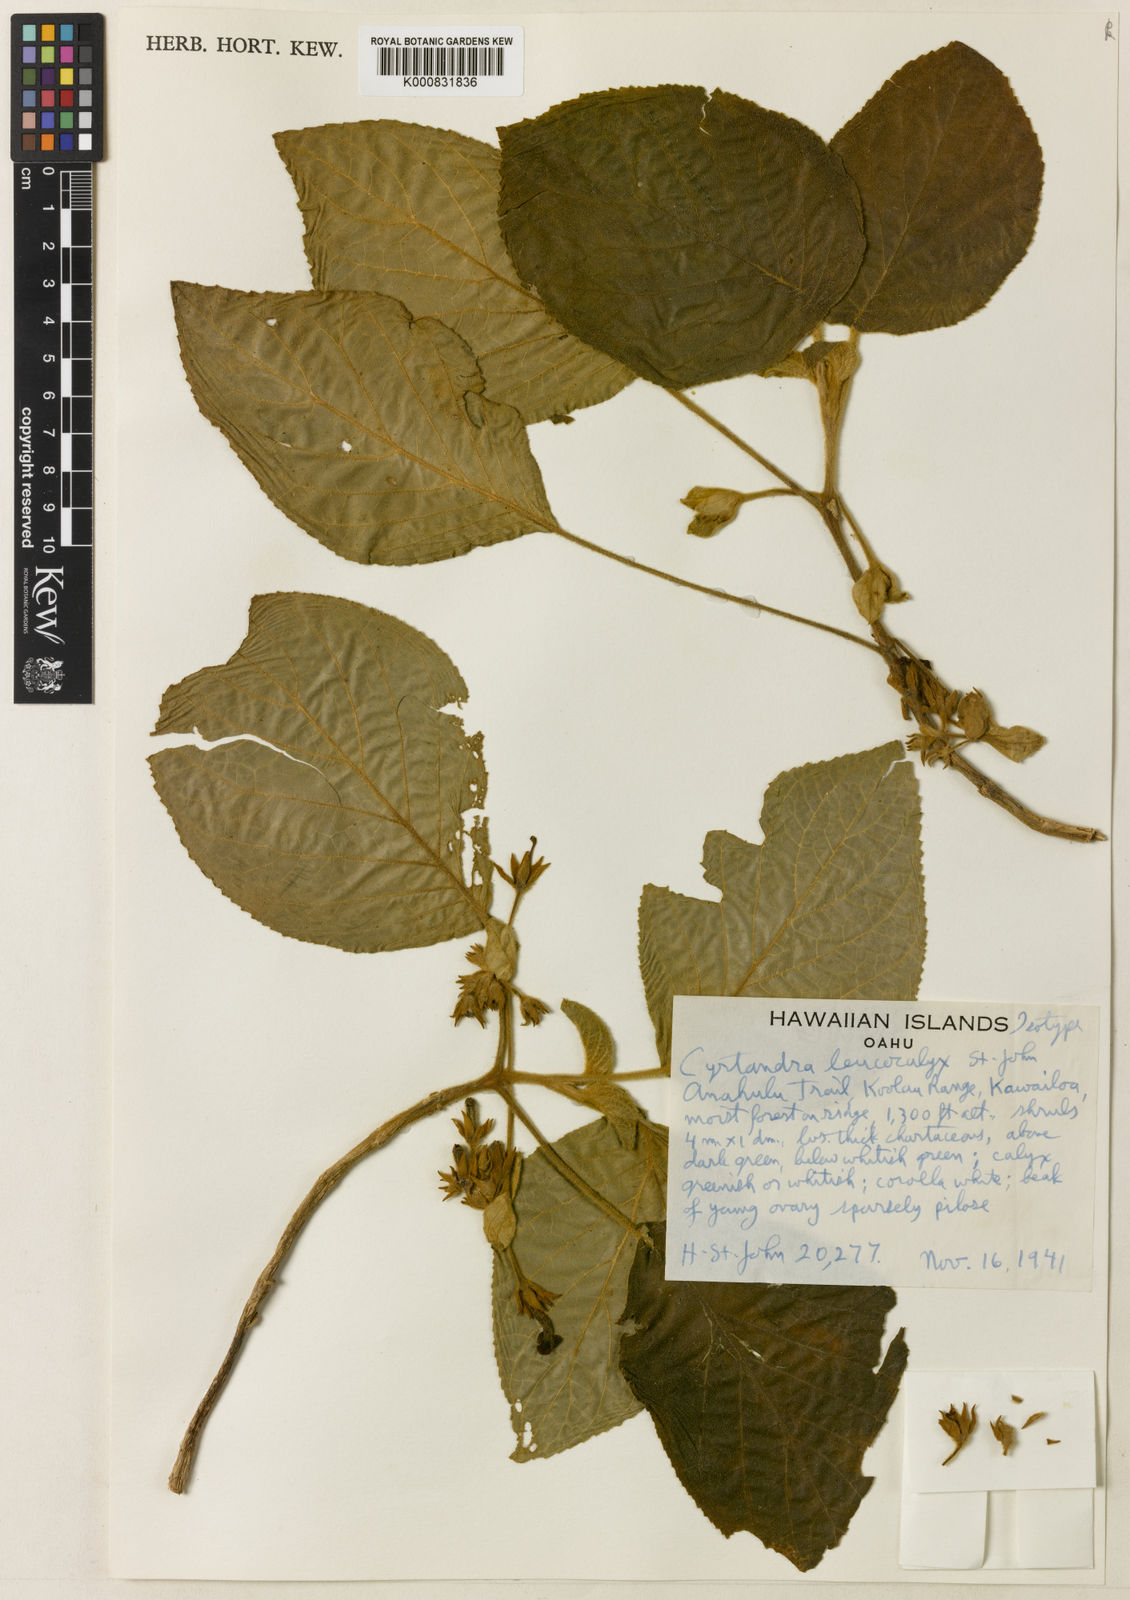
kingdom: Plantae
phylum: Tracheophyta
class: Magnoliopsida
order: Lamiales
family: Gesneriaceae
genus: Cyrtandra
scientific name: Cyrtandra propinqua
